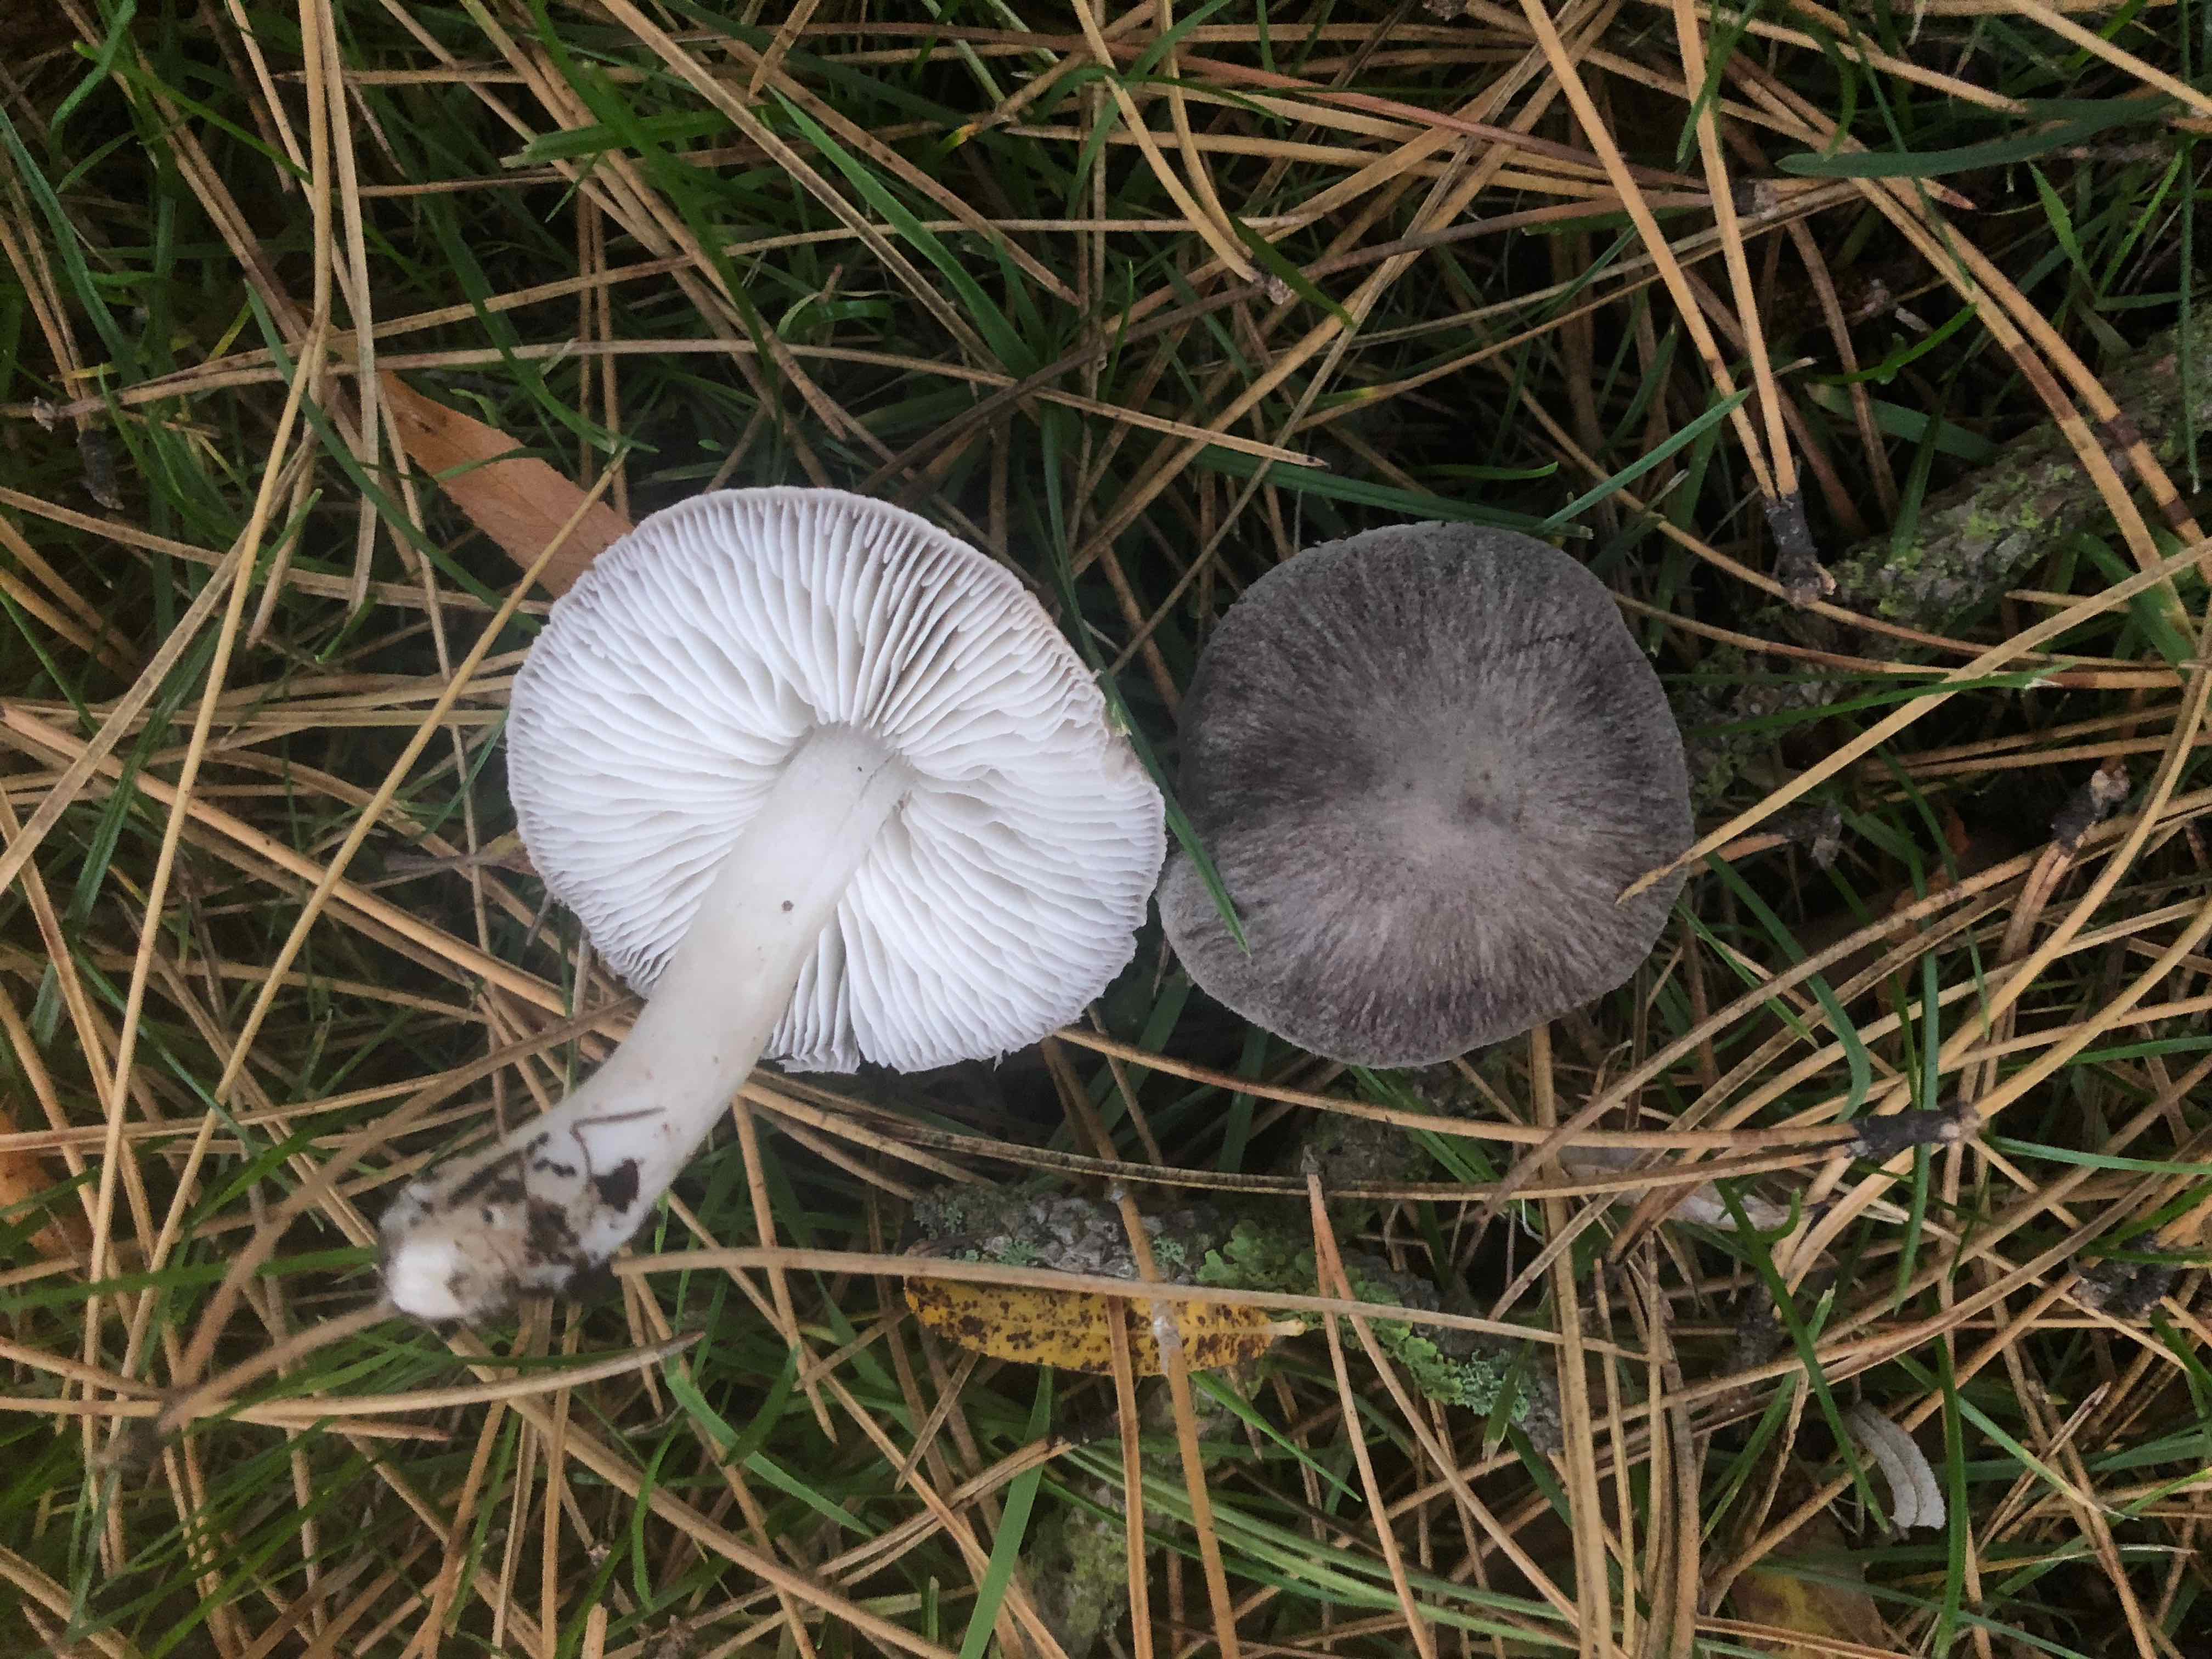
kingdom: Fungi
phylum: Basidiomycota
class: Agaricomycetes
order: Agaricales
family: Tricholomataceae
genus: Tricholoma
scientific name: Tricholoma terreum
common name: jordfarvet ridderhat
